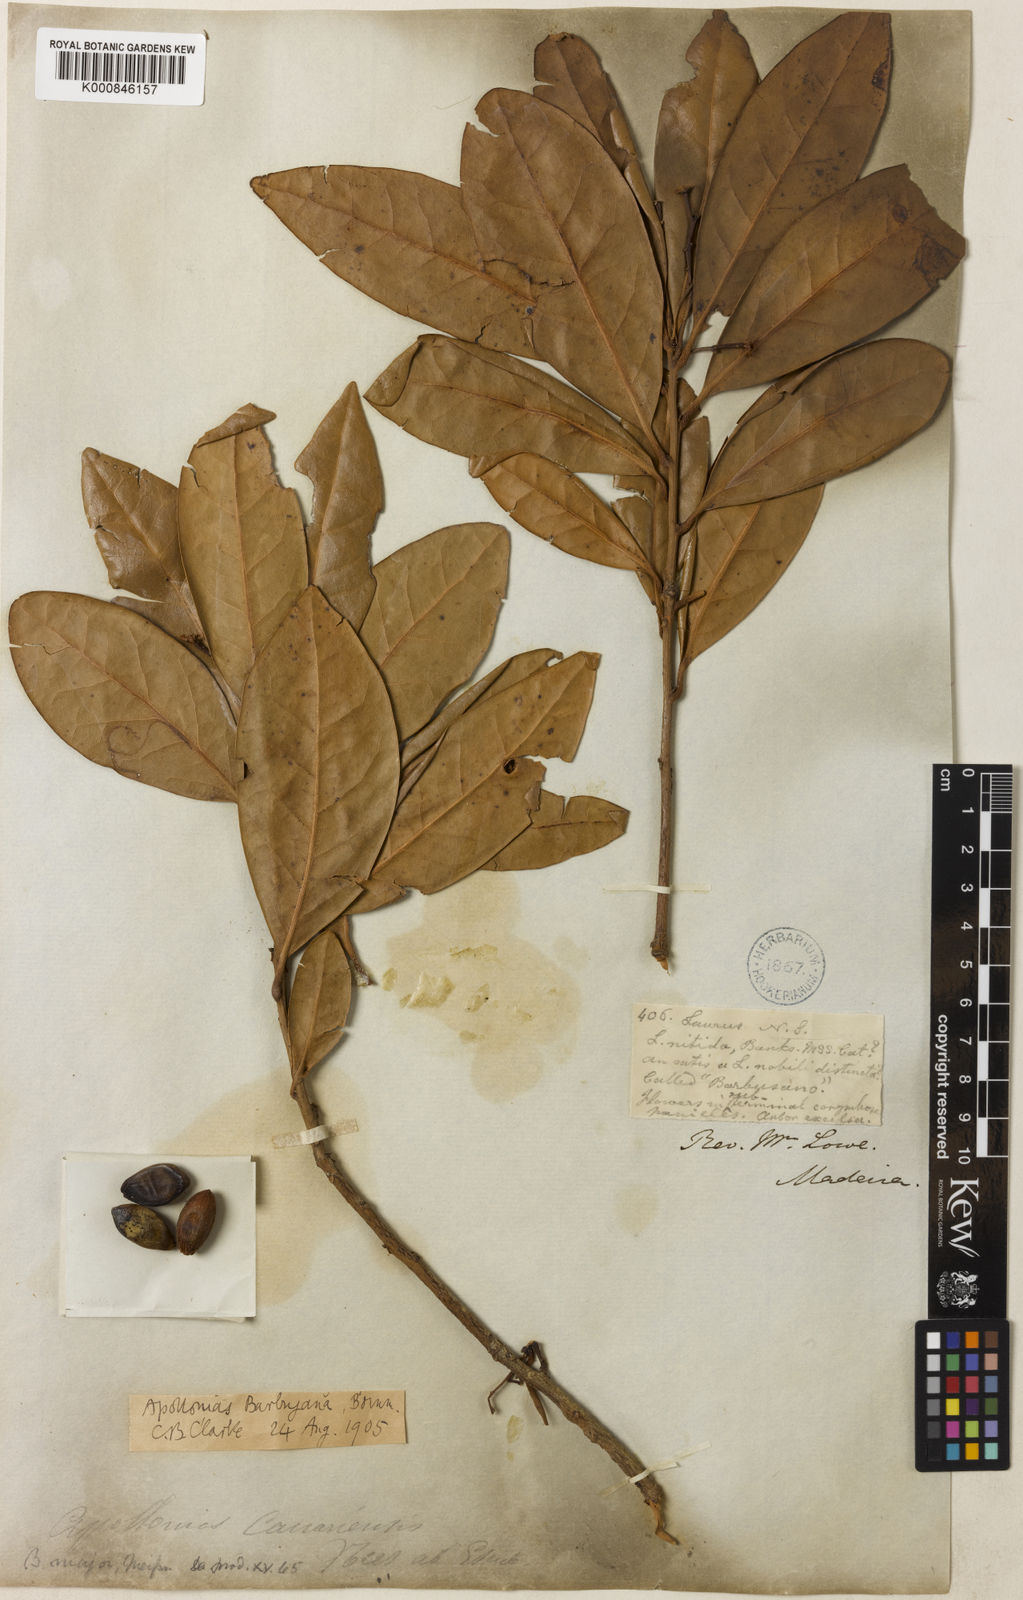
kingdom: Plantae
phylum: Tracheophyta
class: Magnoliopsida
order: Laurales
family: Lauraceae
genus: Apollonias
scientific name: Apollonias barbujana
